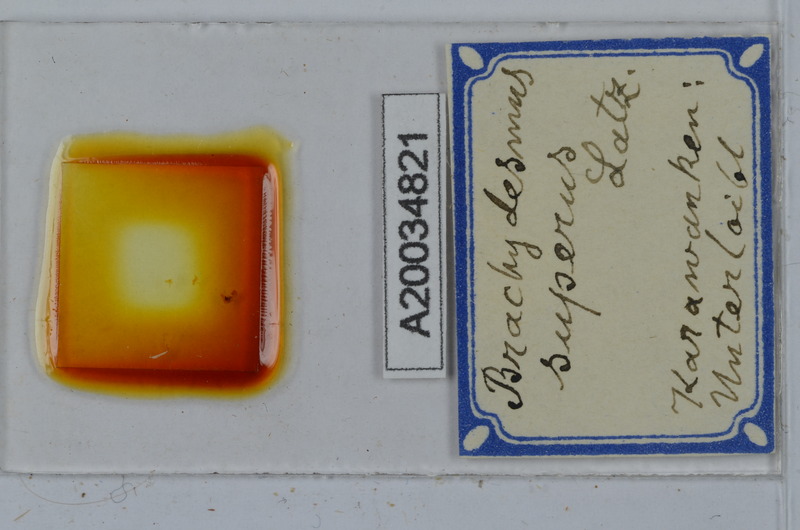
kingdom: Animalia
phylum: Arthropoda
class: Diplopoda
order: Polydesmida
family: Polydesmidae
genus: Brachydesmus
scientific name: Brachydesmus superus
